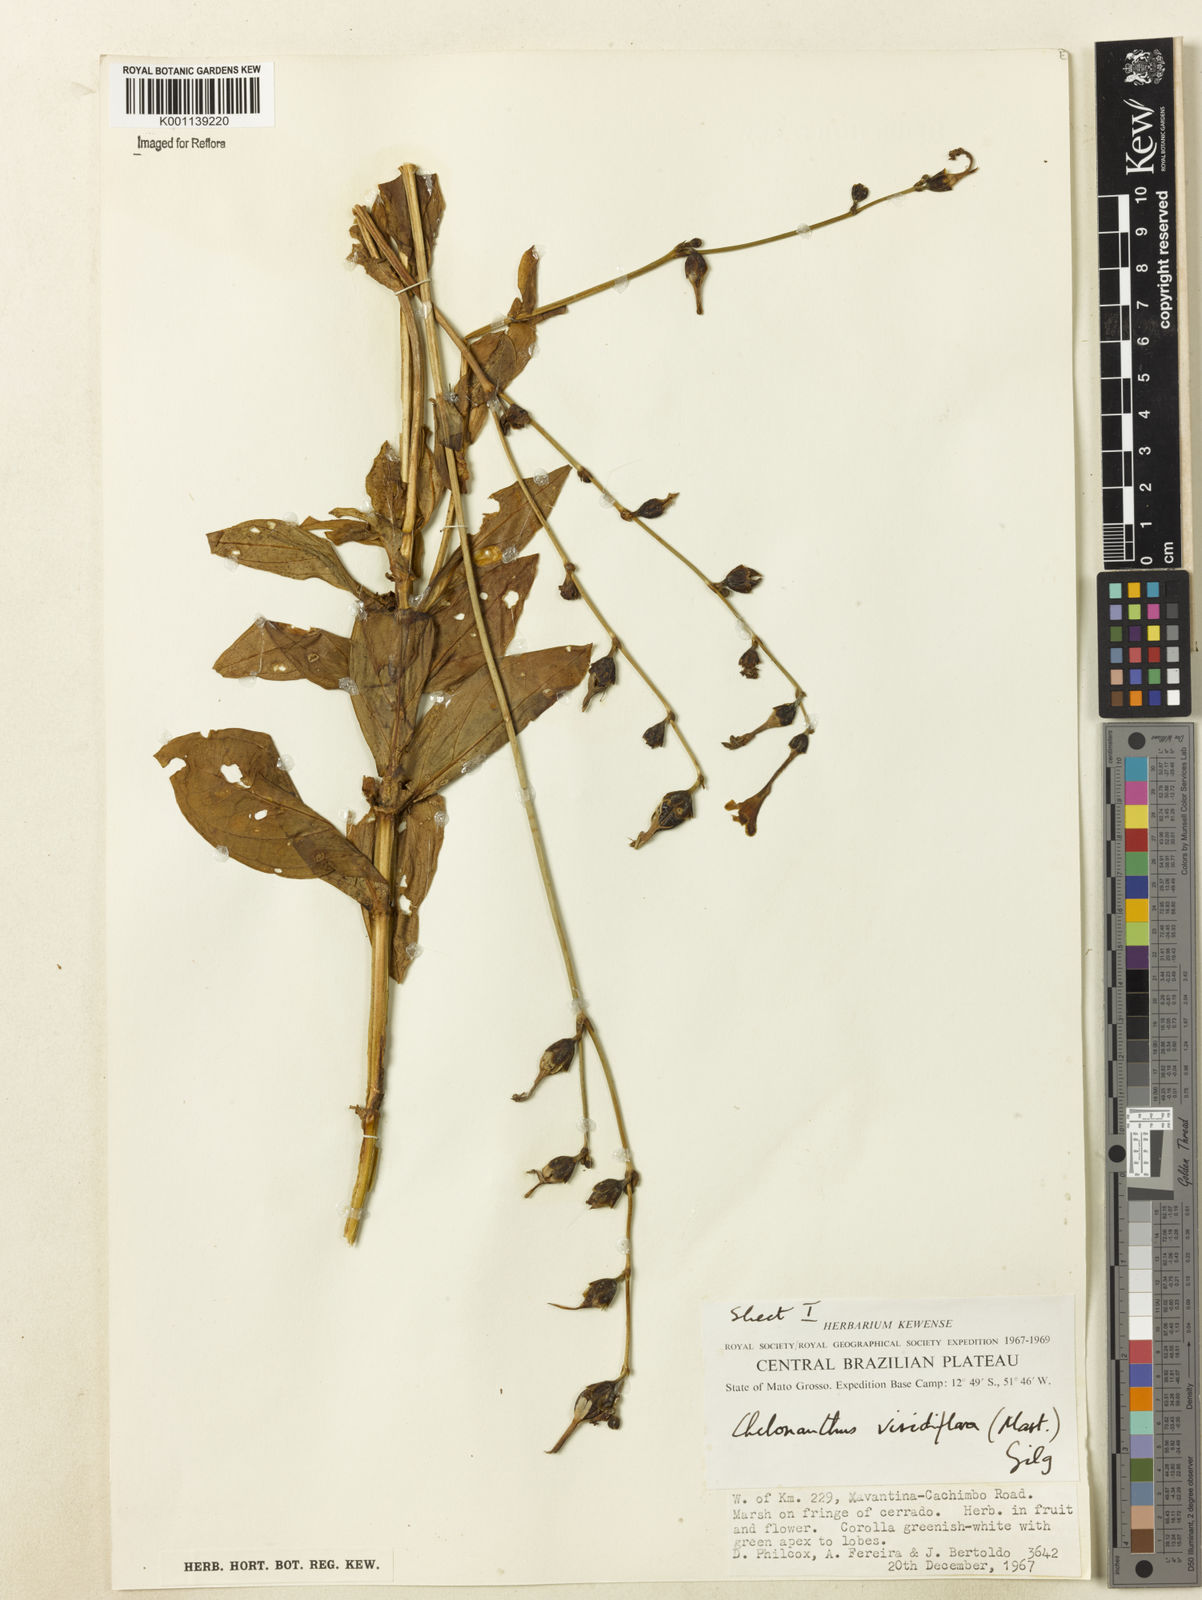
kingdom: Plantae
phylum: Tracheophyta
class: Magnoliopsida
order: Gentianales
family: Gentianaceae
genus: Chelonanthus
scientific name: Chelonanthus viridiflorus
